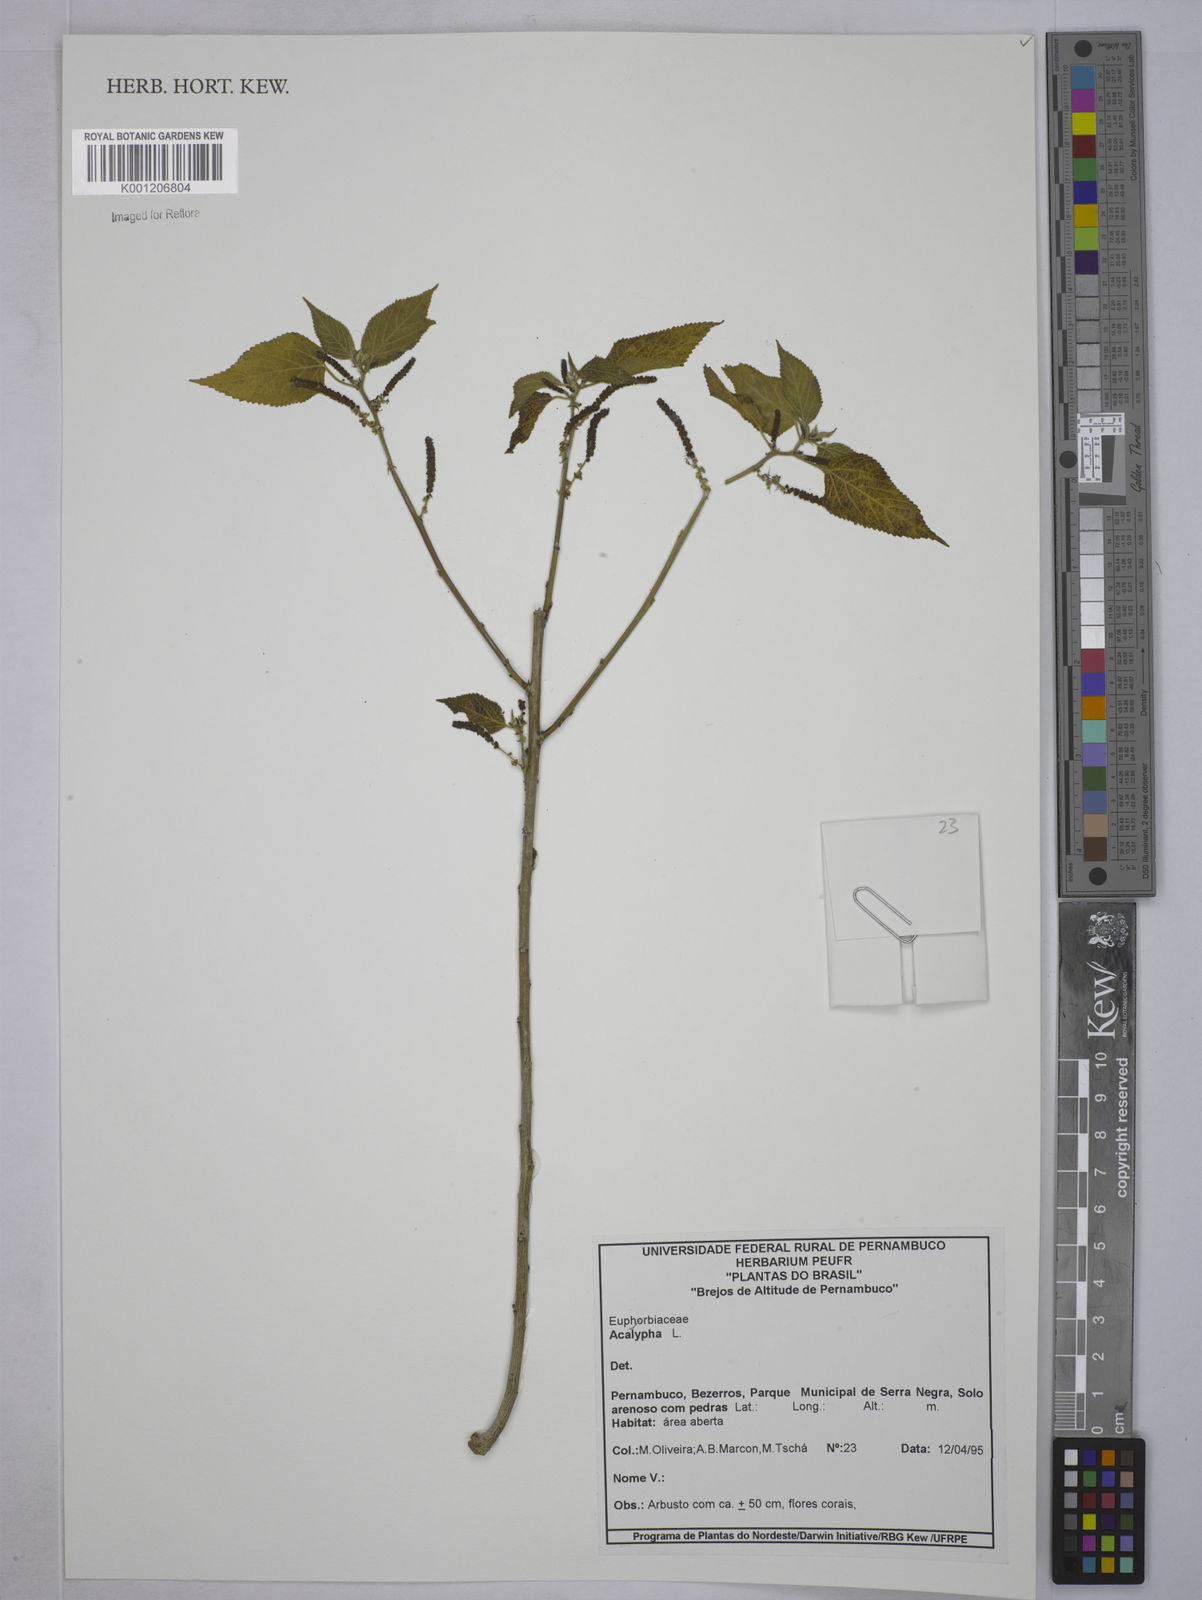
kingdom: Plantae
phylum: Tracheophyta
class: Magnoliopsida
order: Malpighiales
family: Euphorbiaceae
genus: Acalypha
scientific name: Acalypha
